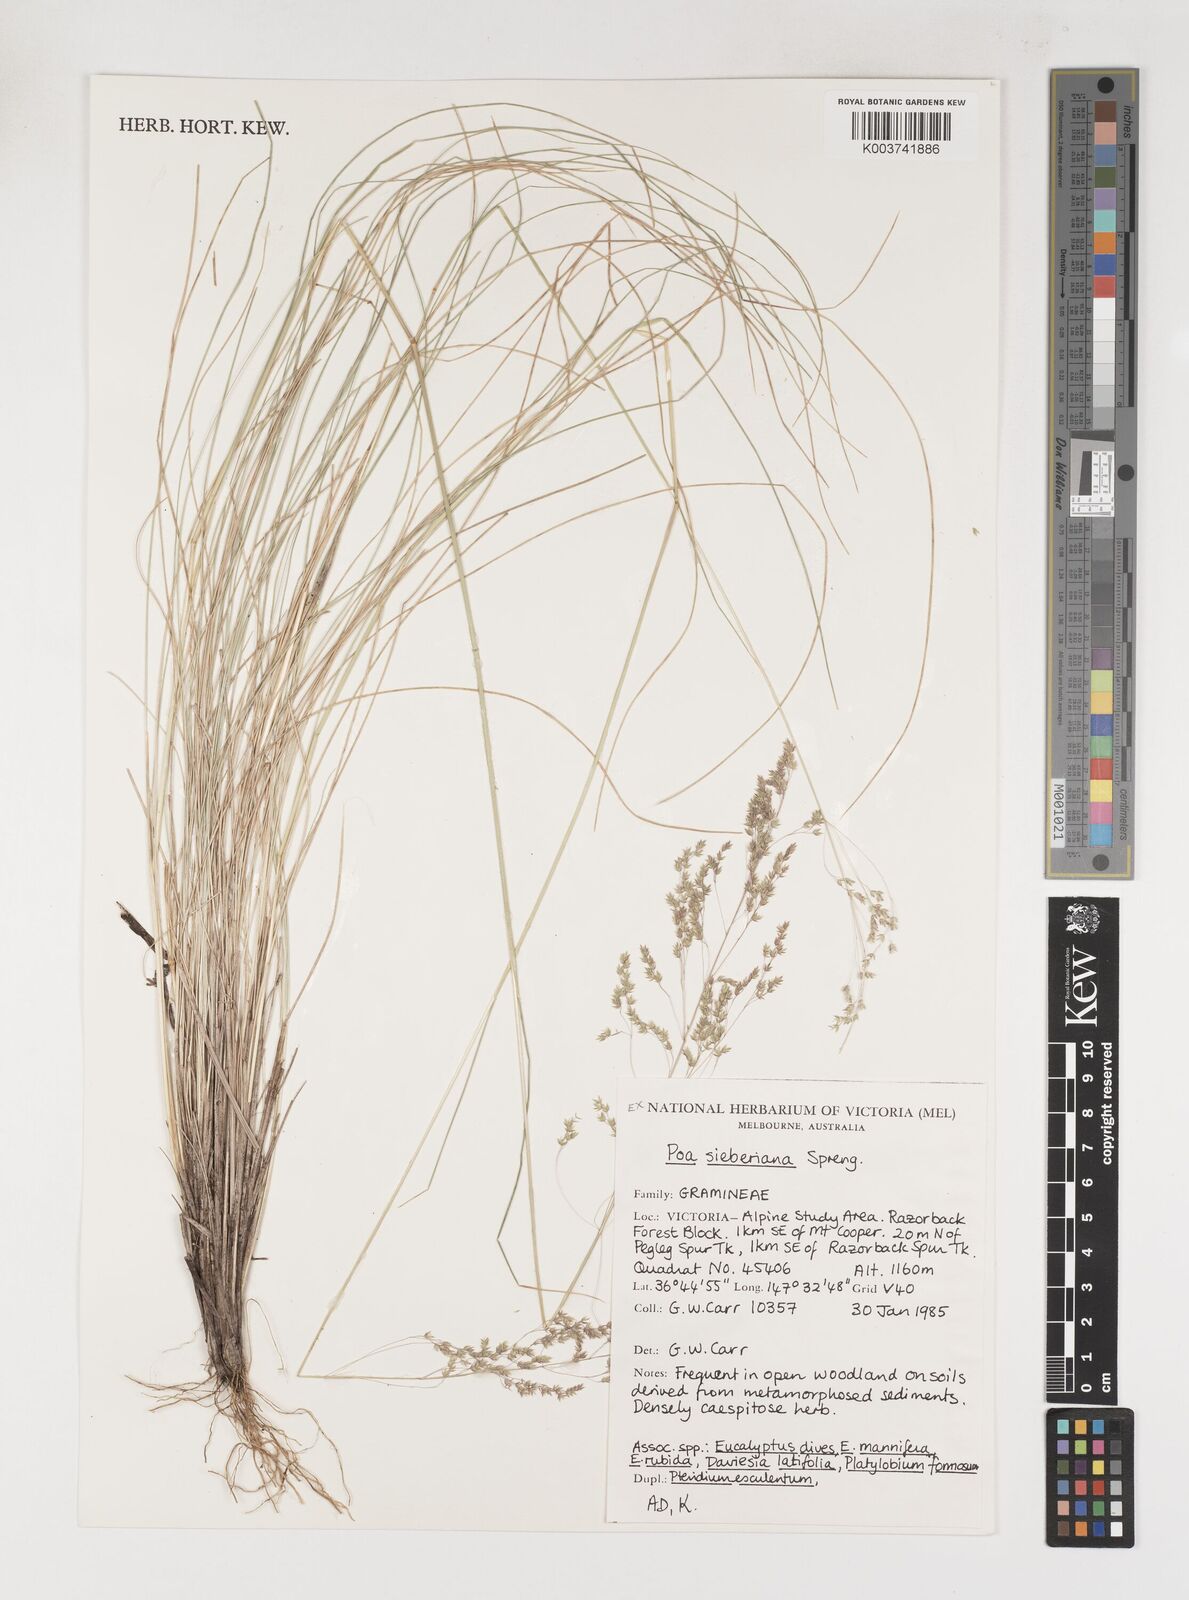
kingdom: Plantae
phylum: Tracheophyta
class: Liliopsida
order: Poales
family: Poaceae
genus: Poa
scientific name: Poa sieberiana
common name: Tussock poa
